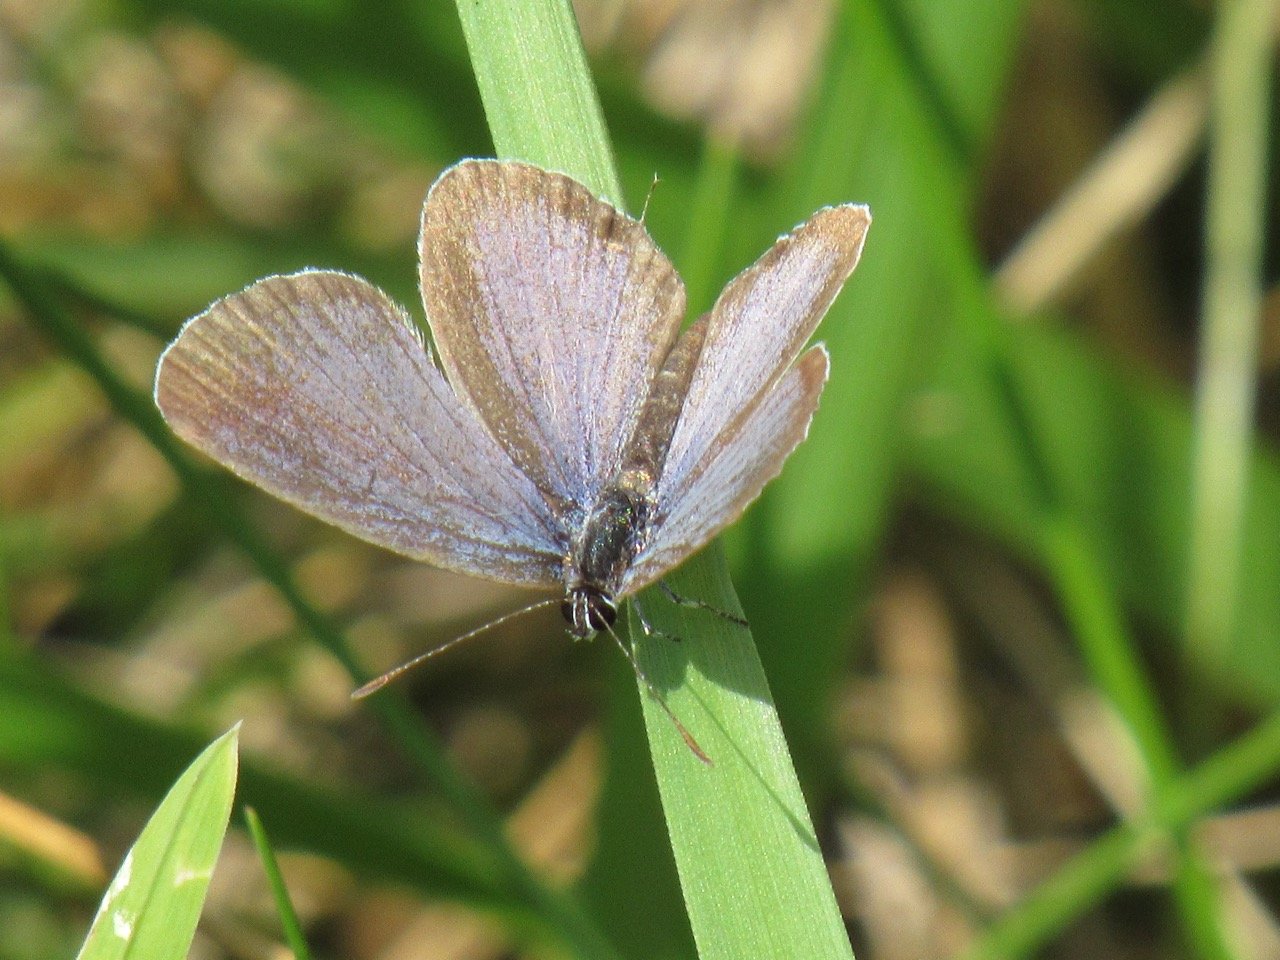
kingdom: Animalia
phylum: Arthropoda
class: Insecta
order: Lepidoptera
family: Lycaenidae
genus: Elkalyce
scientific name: Elkalyce comyntas
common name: Eastern Tailed-Blue
